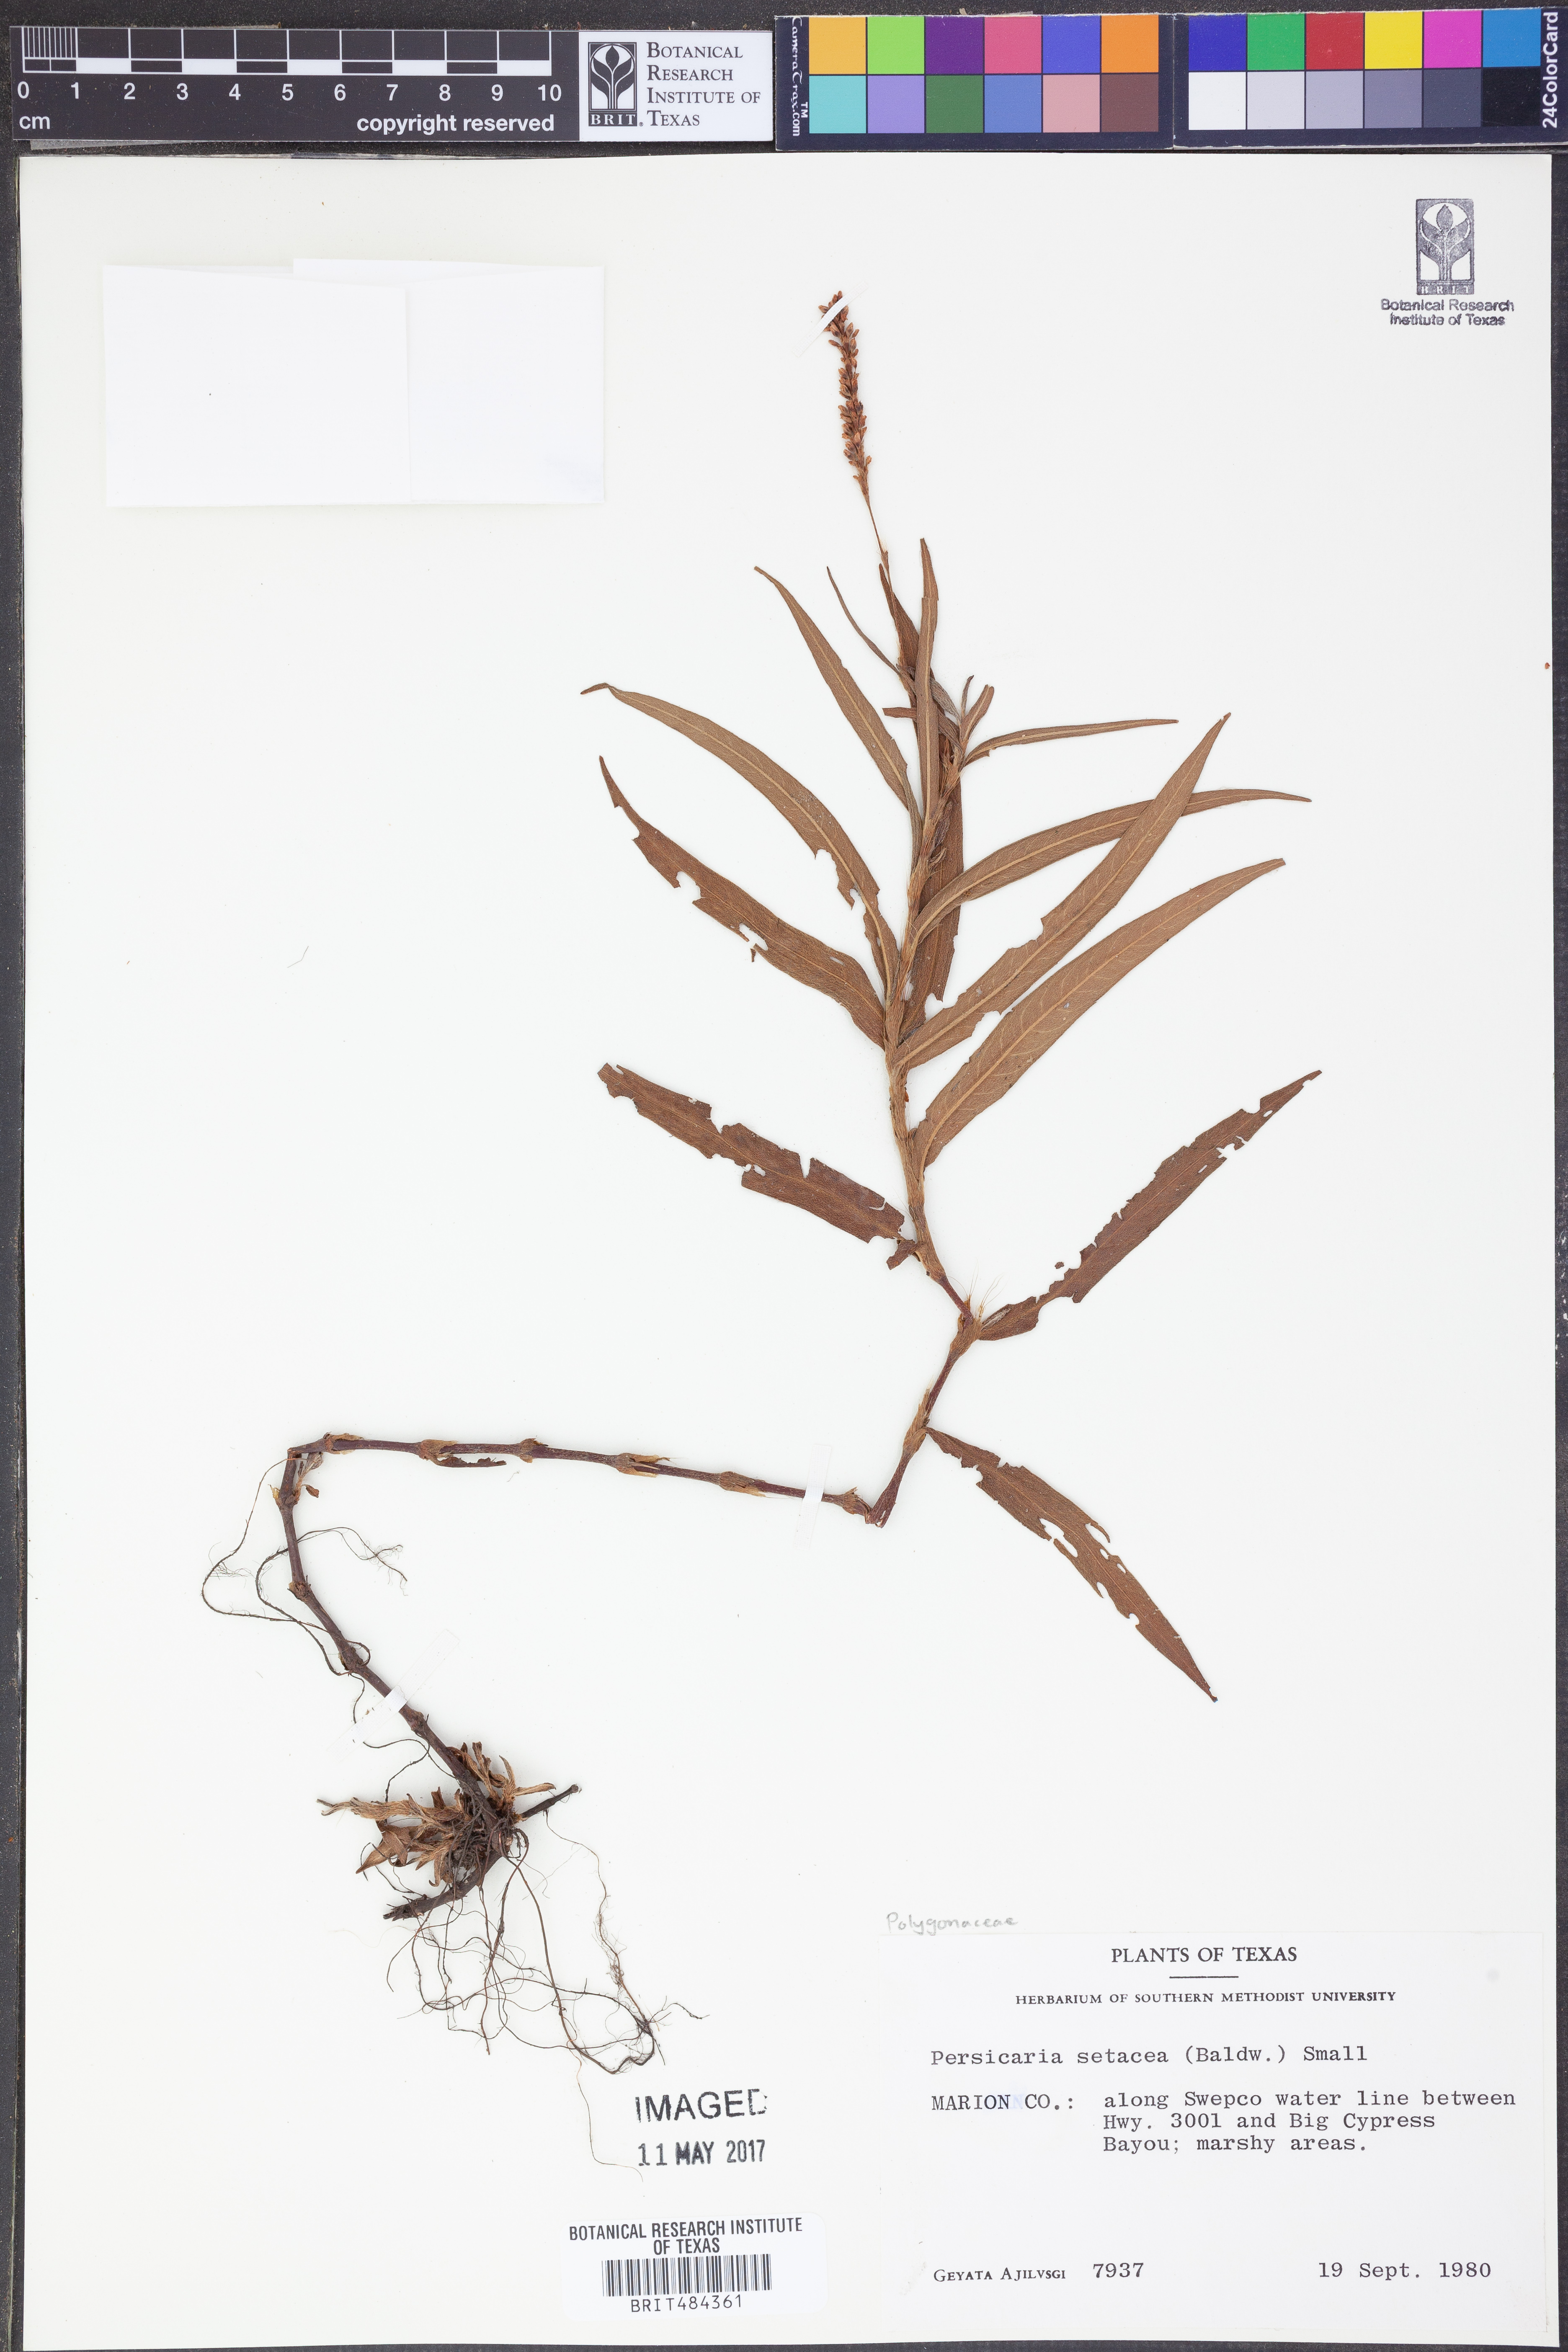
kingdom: Plantae
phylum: Tracheophyta
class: Magnoliopsida
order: Caryophyllales
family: Polygonaceae
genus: Persicaria
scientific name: Persicaria setacea
